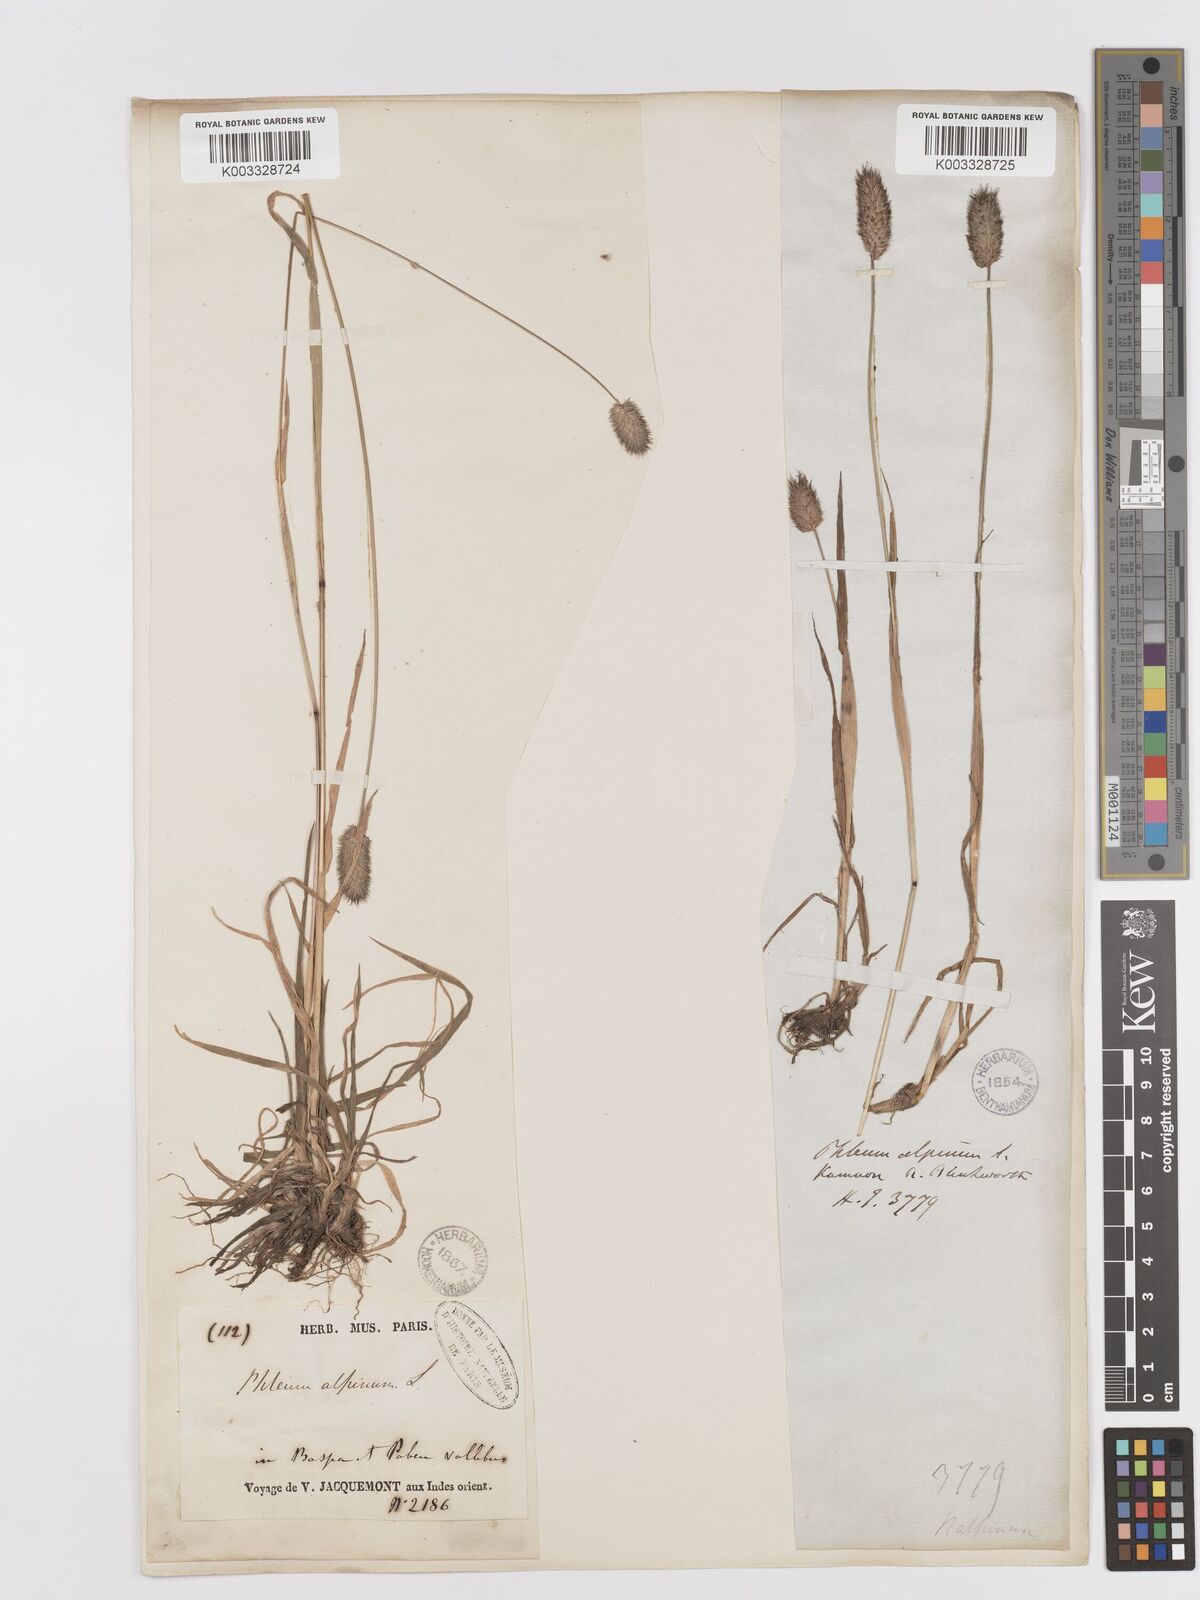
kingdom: Plantae
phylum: Tracheophyta
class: Liliopsida
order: Poales
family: Poaceae
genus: Phleum
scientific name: Phleum alpinum
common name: Alpine cat's-tail
